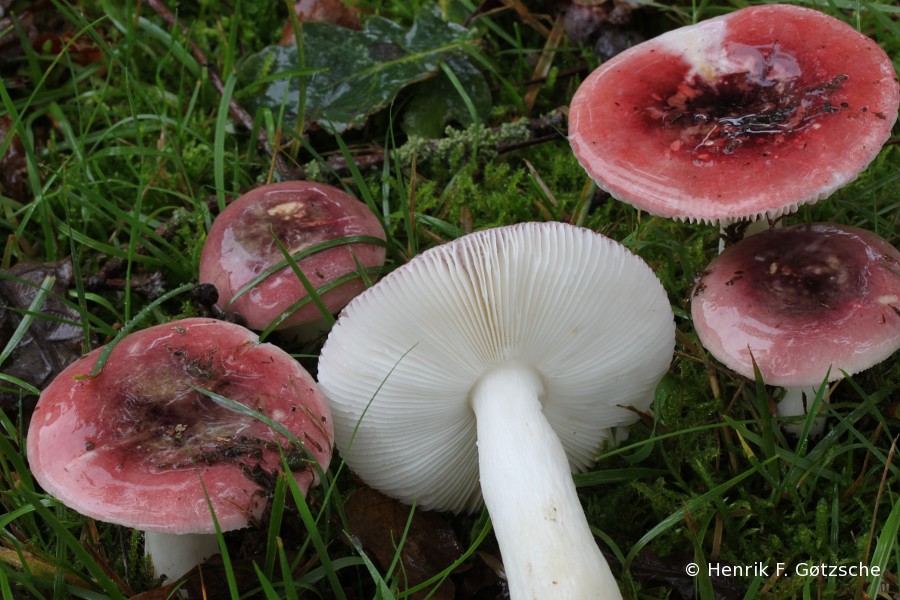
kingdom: Fungi
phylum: Basidiomycota
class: Agaricomycetes
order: Russulales
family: Russulaceae
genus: Russula
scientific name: Russula atropurpurea
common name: purpurbroget skørhat
